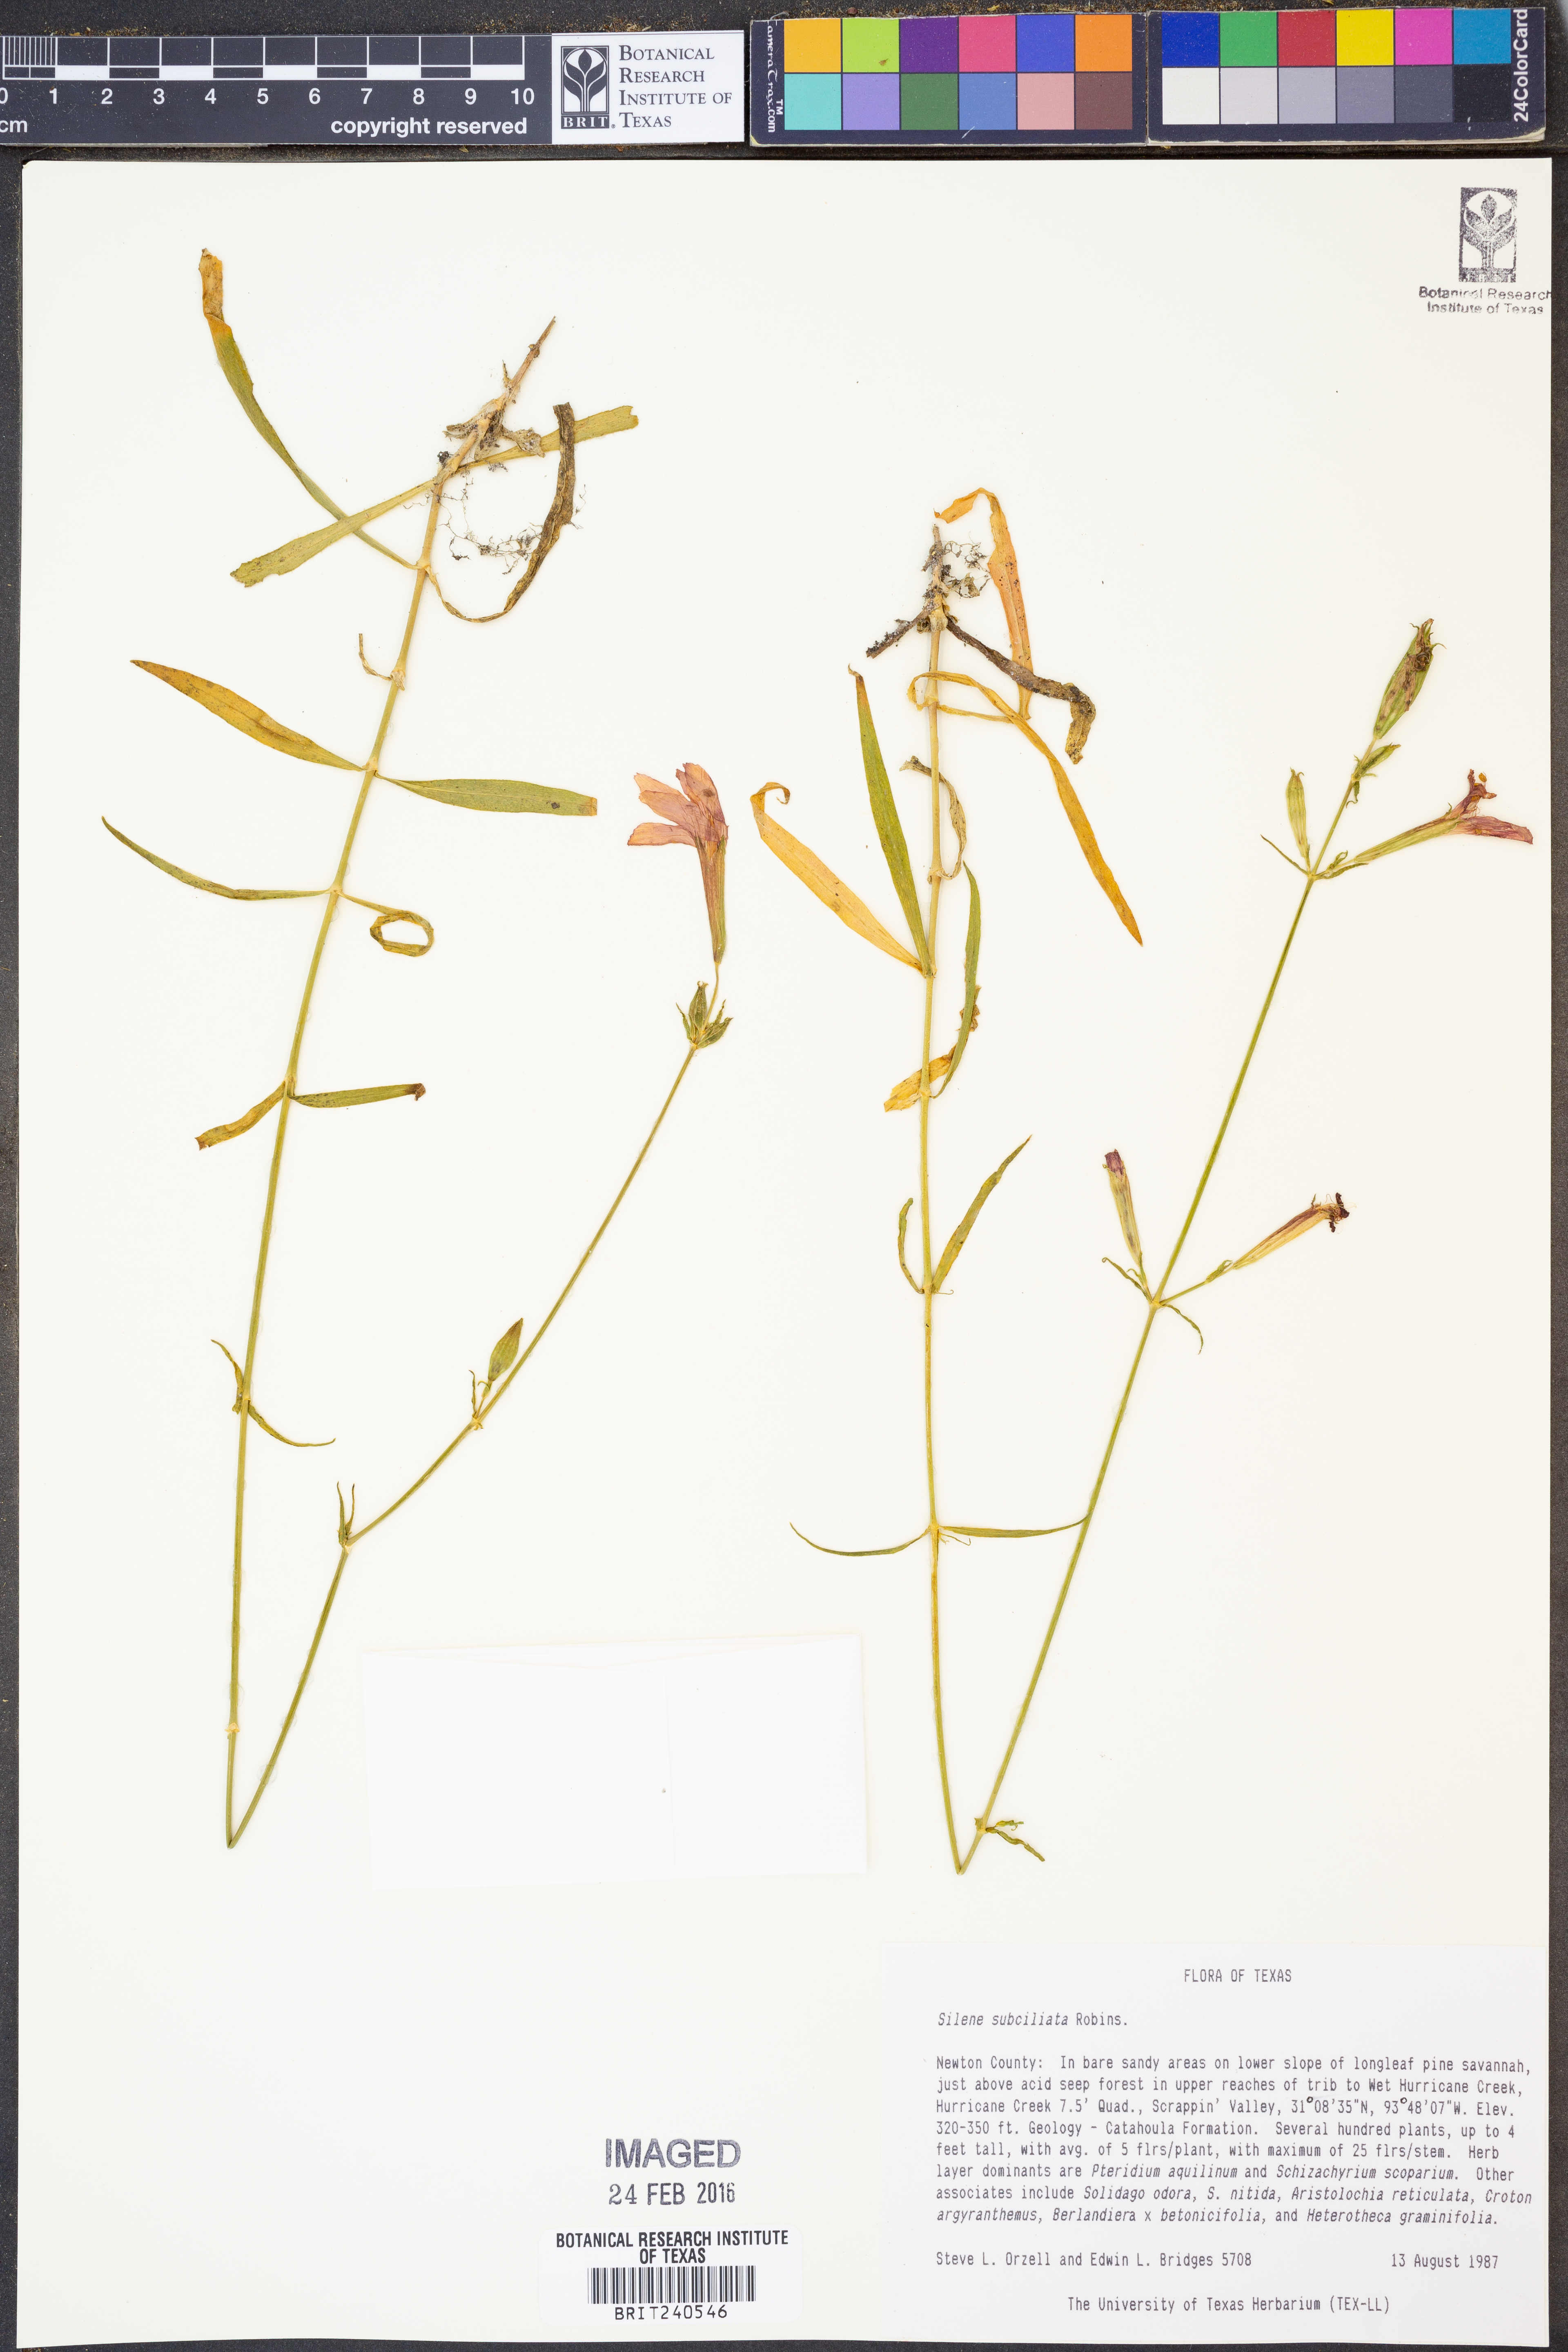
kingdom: Plantae
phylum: Tracheophyta
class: Magnoliopsida
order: Caryophyllales
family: Caryophyllaceae
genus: Silene
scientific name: Silene subciliata
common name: Prairie fire-pink
